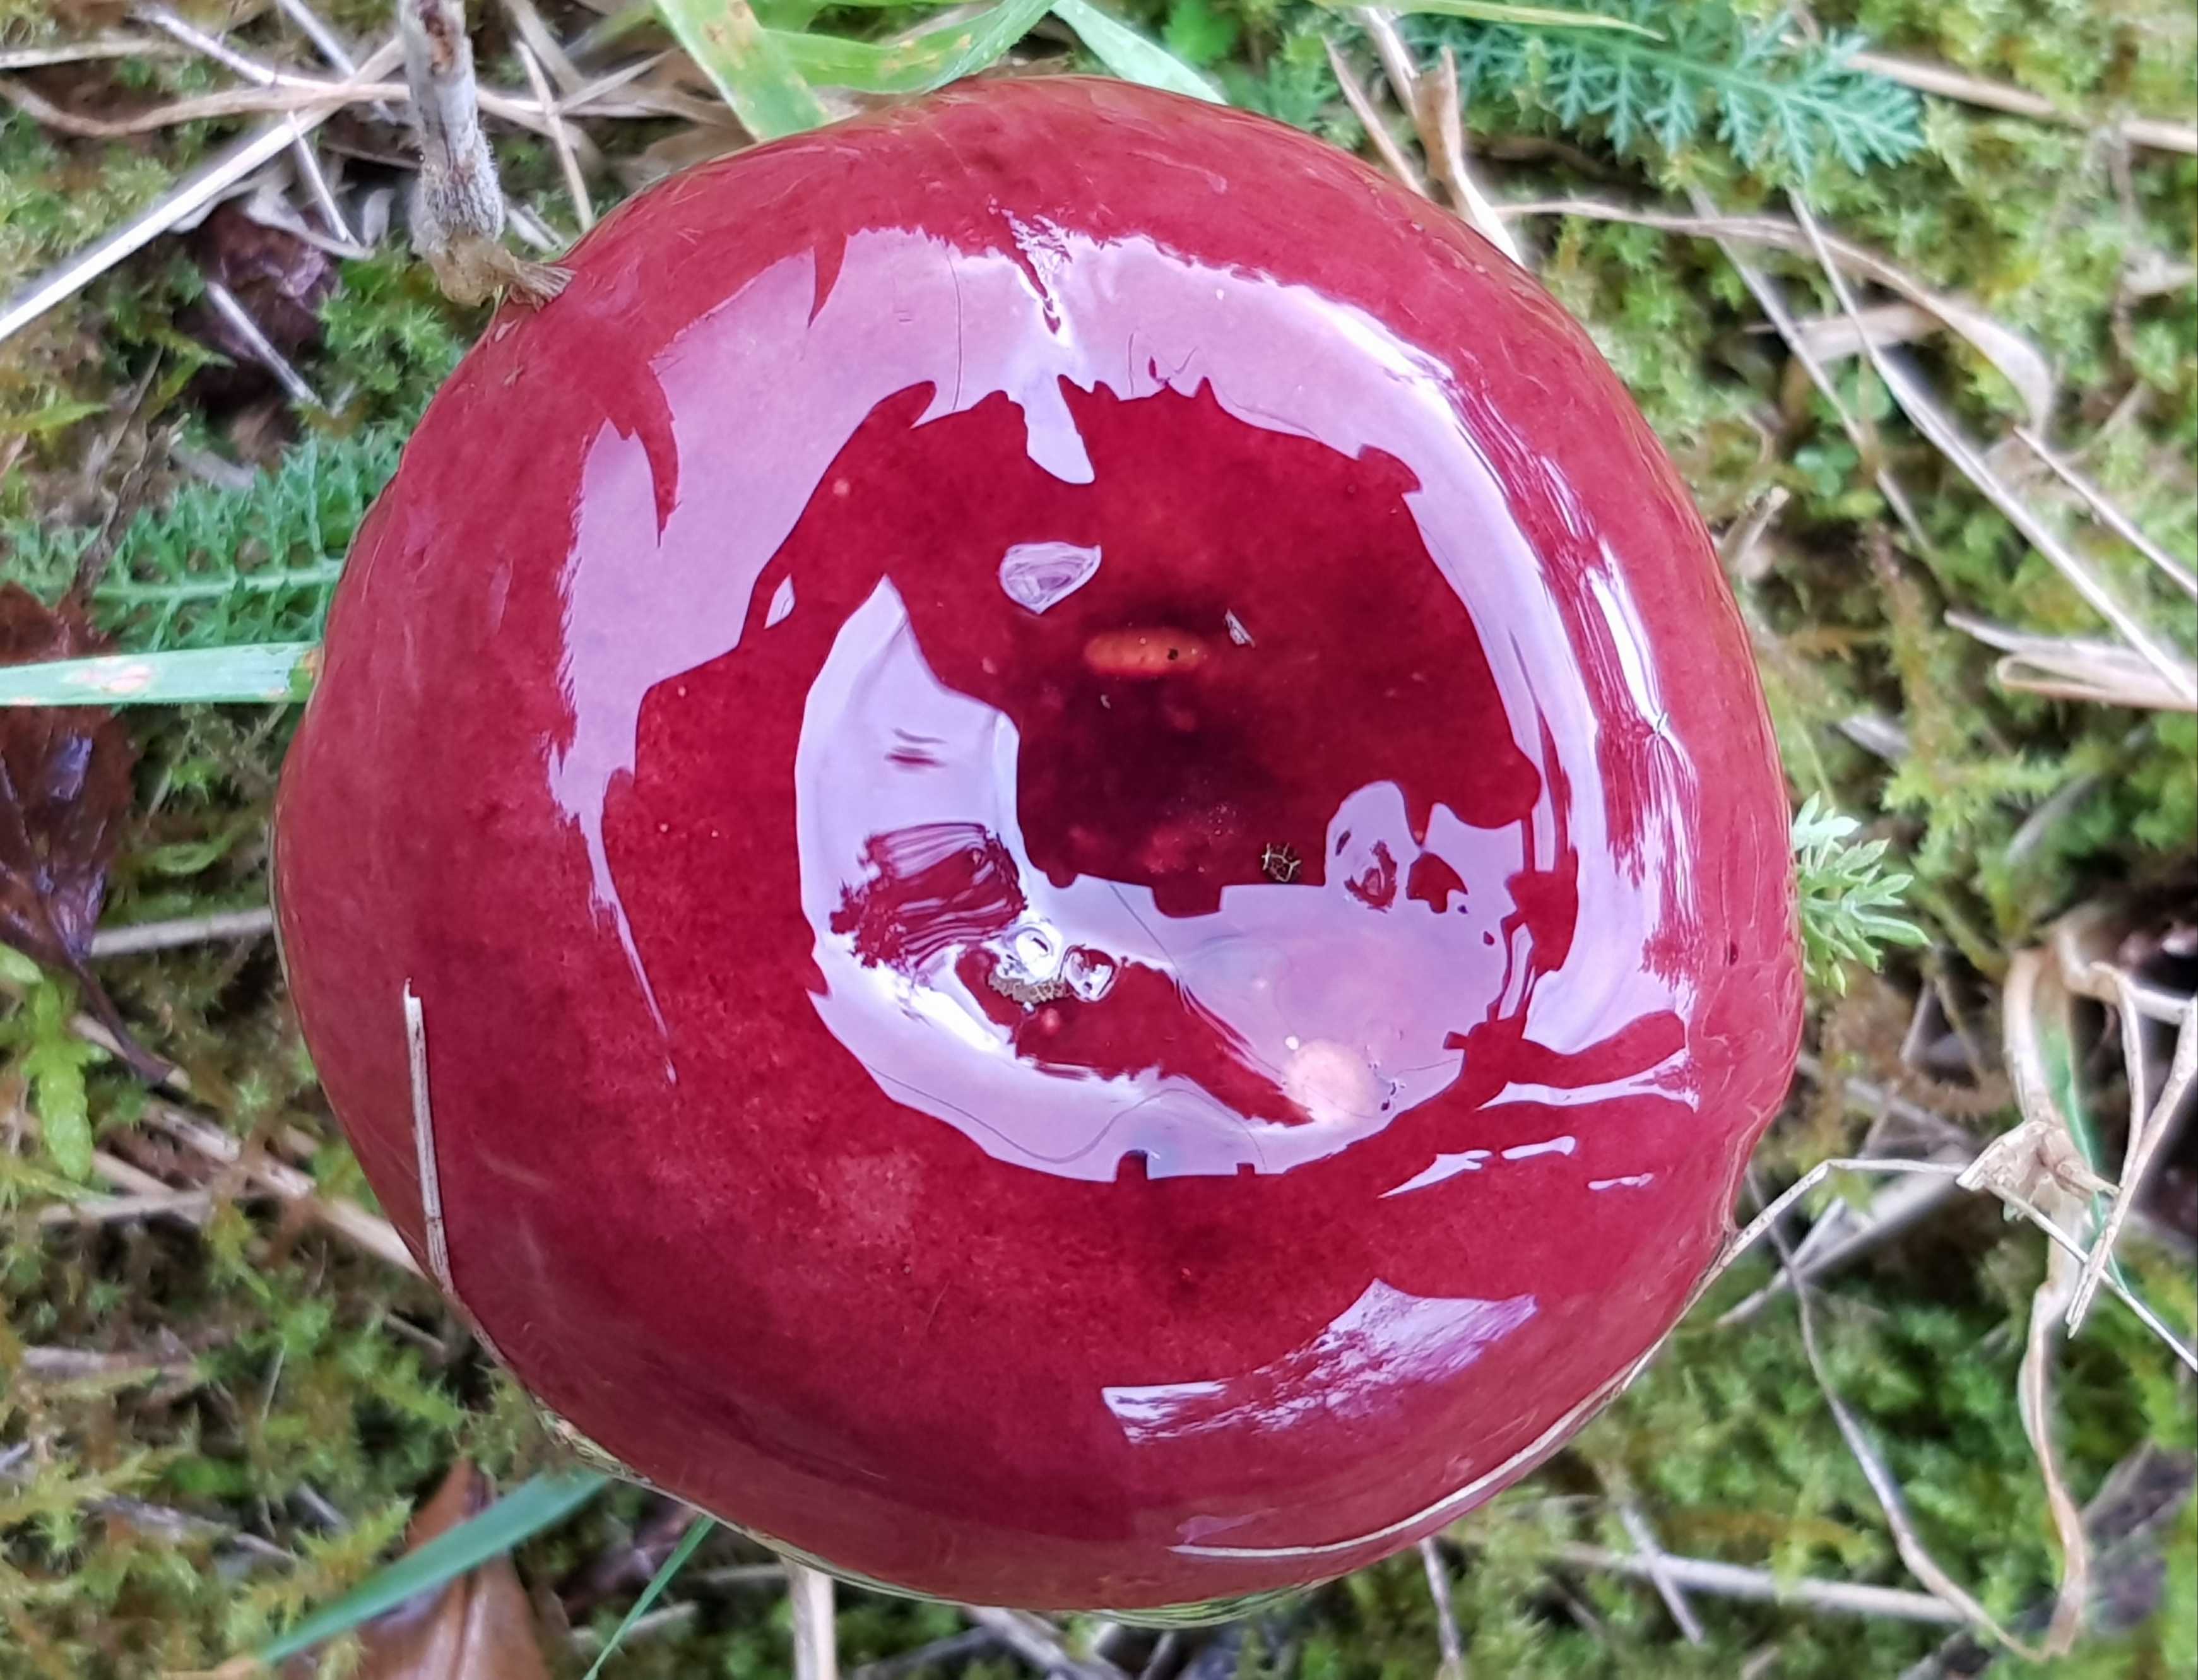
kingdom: Fungi
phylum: Basidiomycota
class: Agaricomycetes
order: Russulales
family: Russulaceae
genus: Russula
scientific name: Russula paludosa
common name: prægtig skørhat
